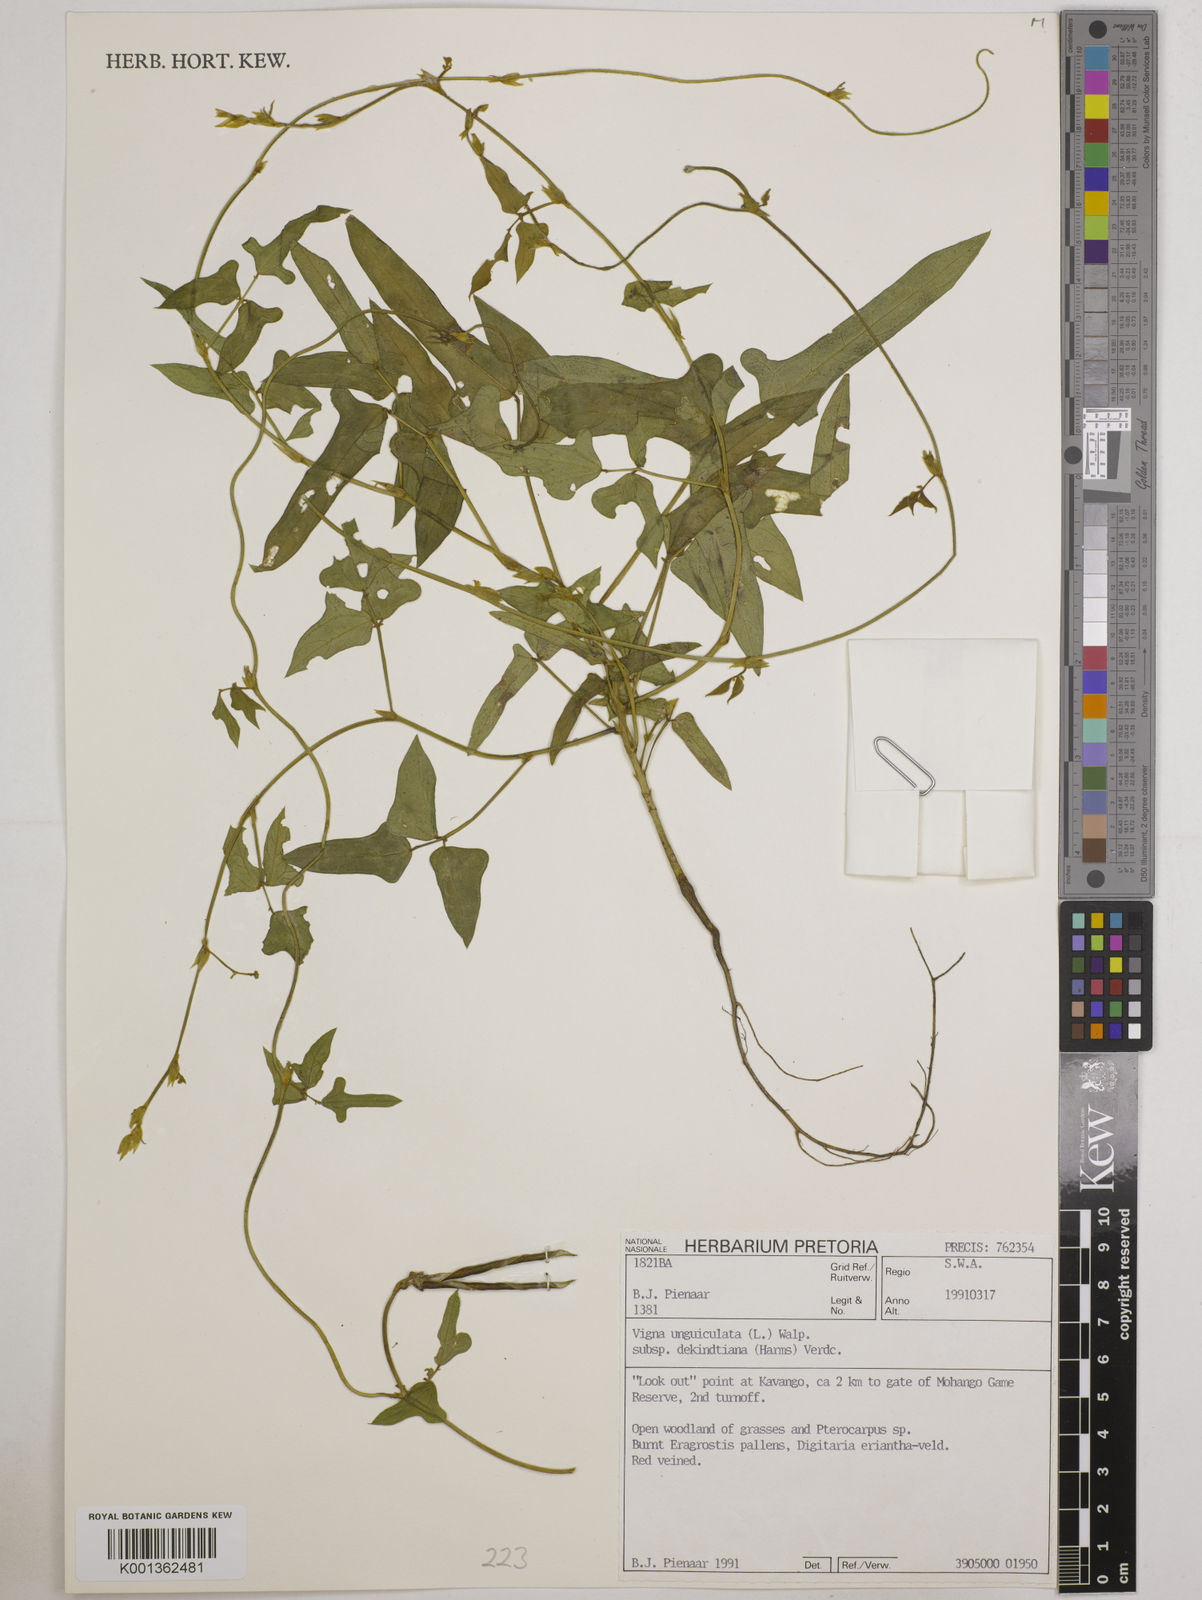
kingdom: Plantae
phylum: Tracheophyta
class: Magnoliopsida
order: Fabales
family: Fabaceae
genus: Vigna
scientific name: Vigna
